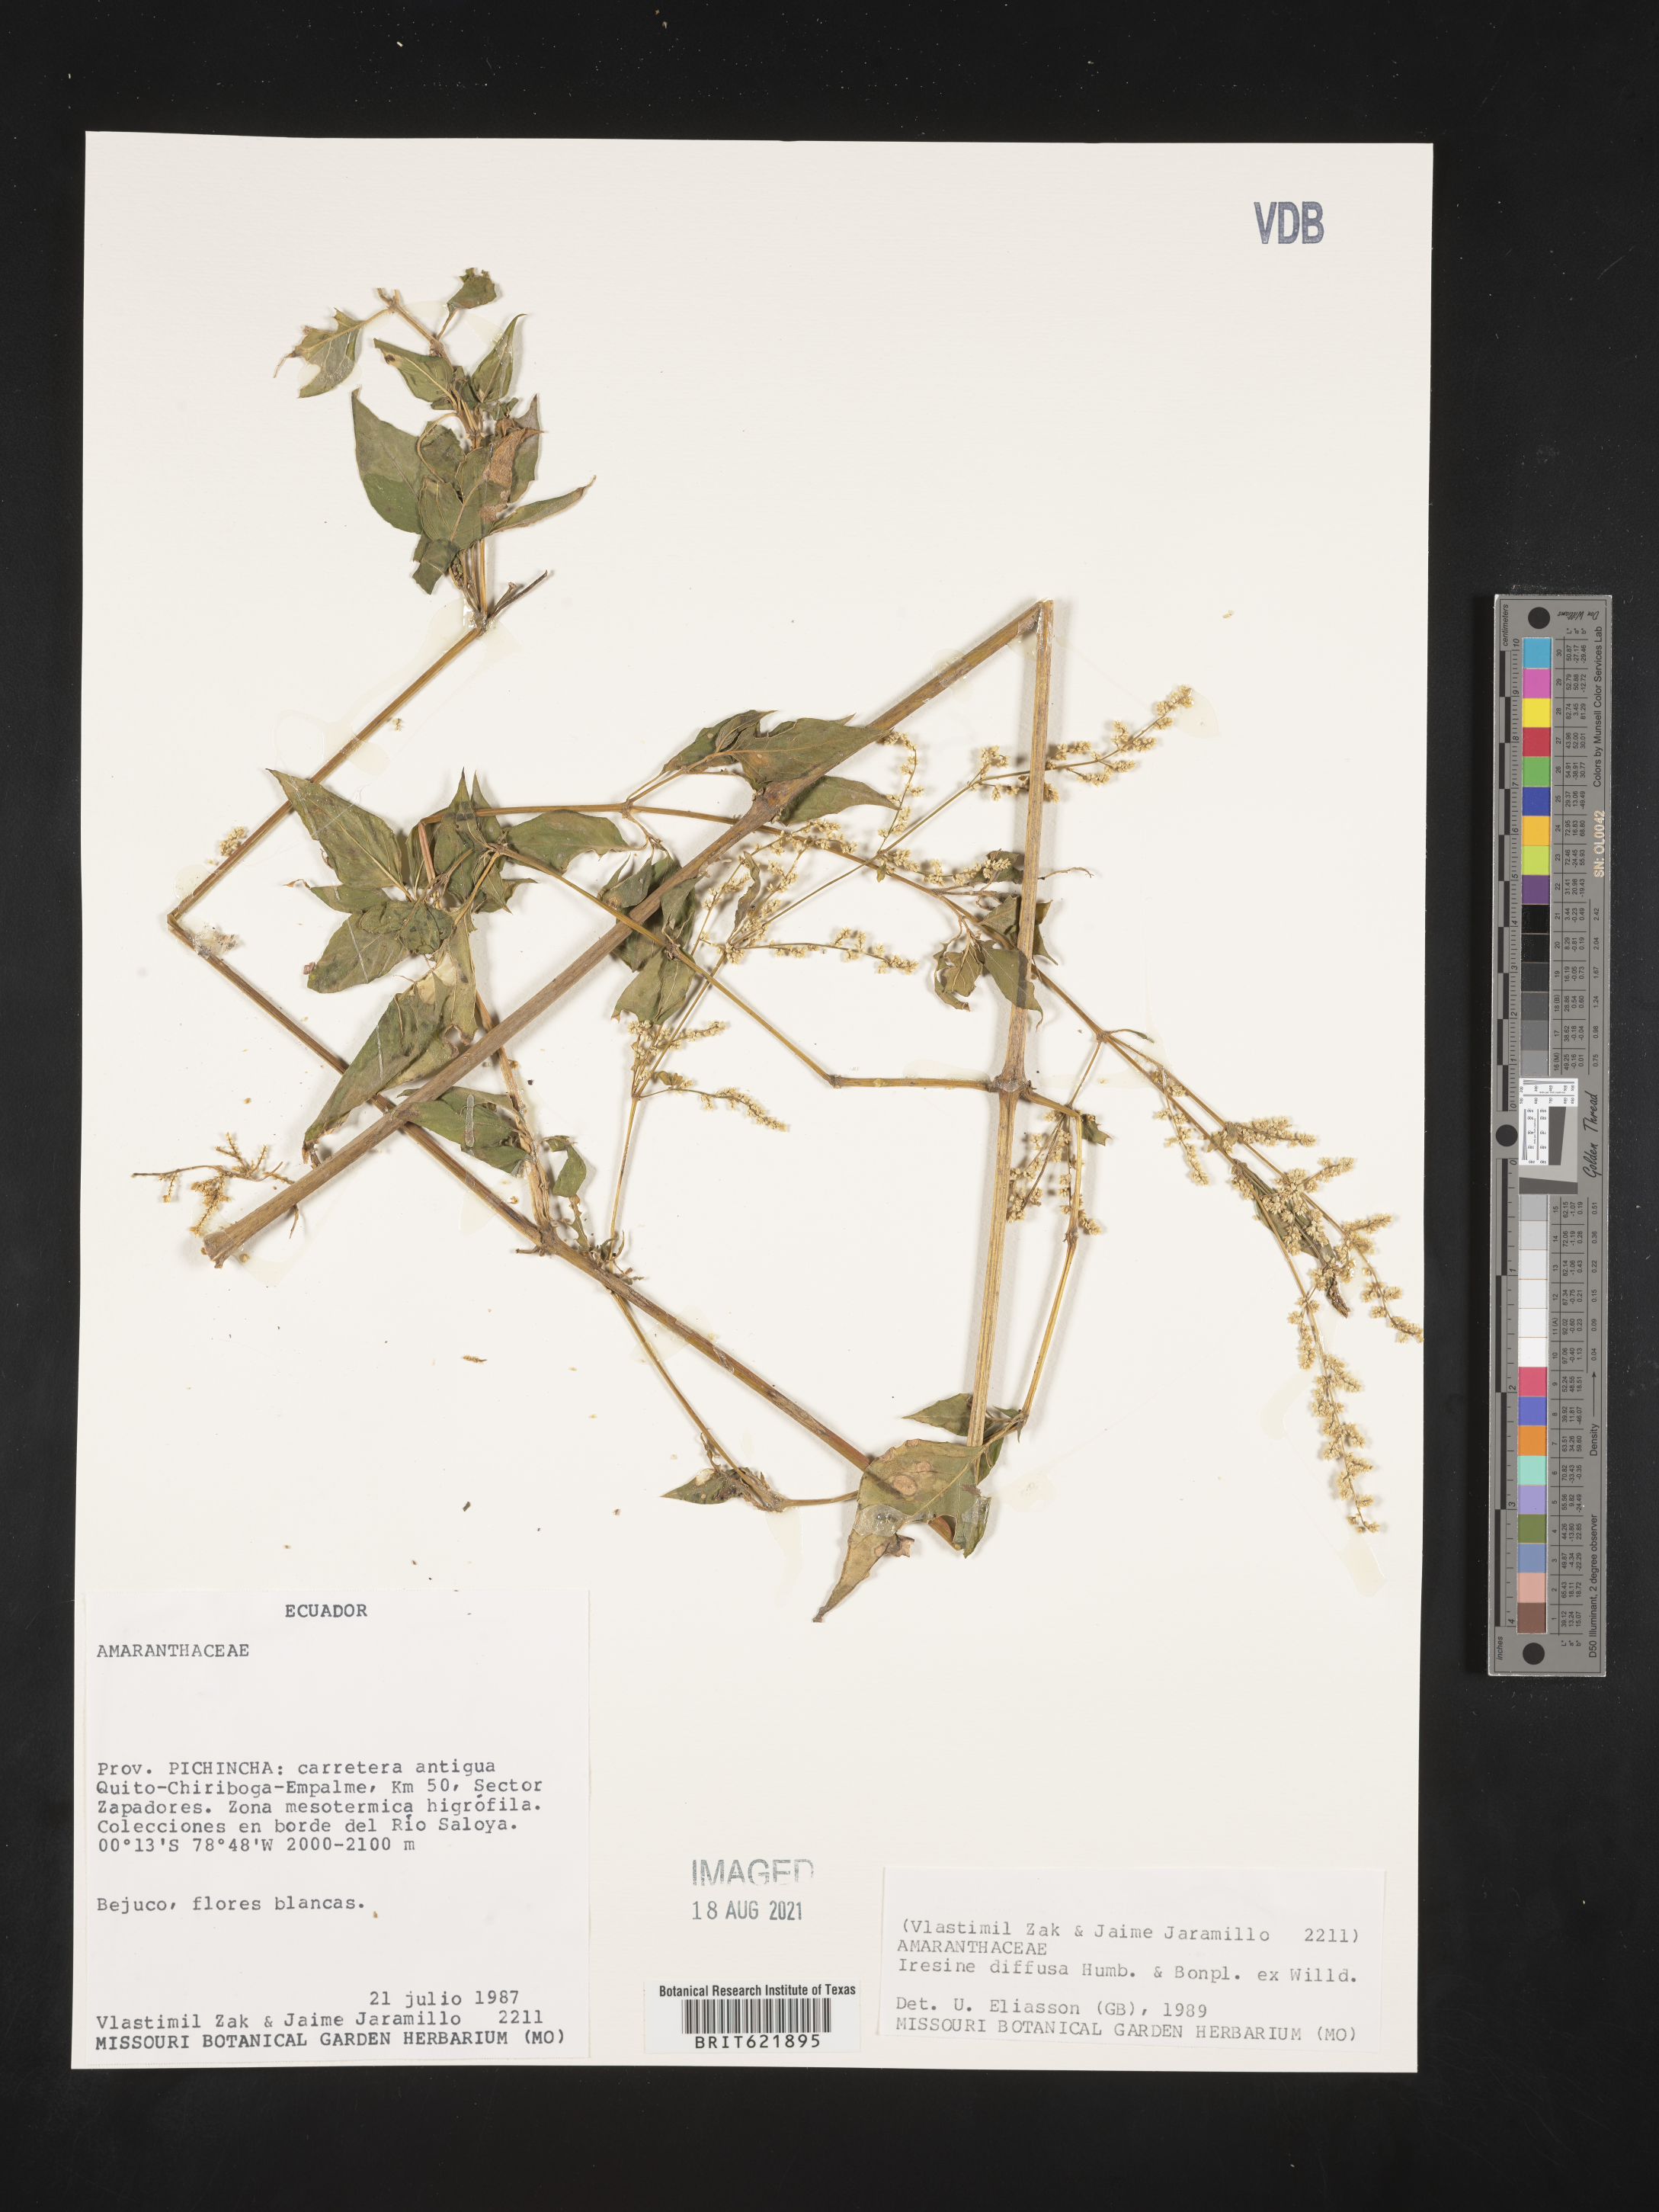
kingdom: Plantae
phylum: Tracheophyta
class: Magnoliopsida
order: Caryophyllales
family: Amaranthaceae
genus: Iresine
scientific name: Iresine diffusa
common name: Juba's-bush
